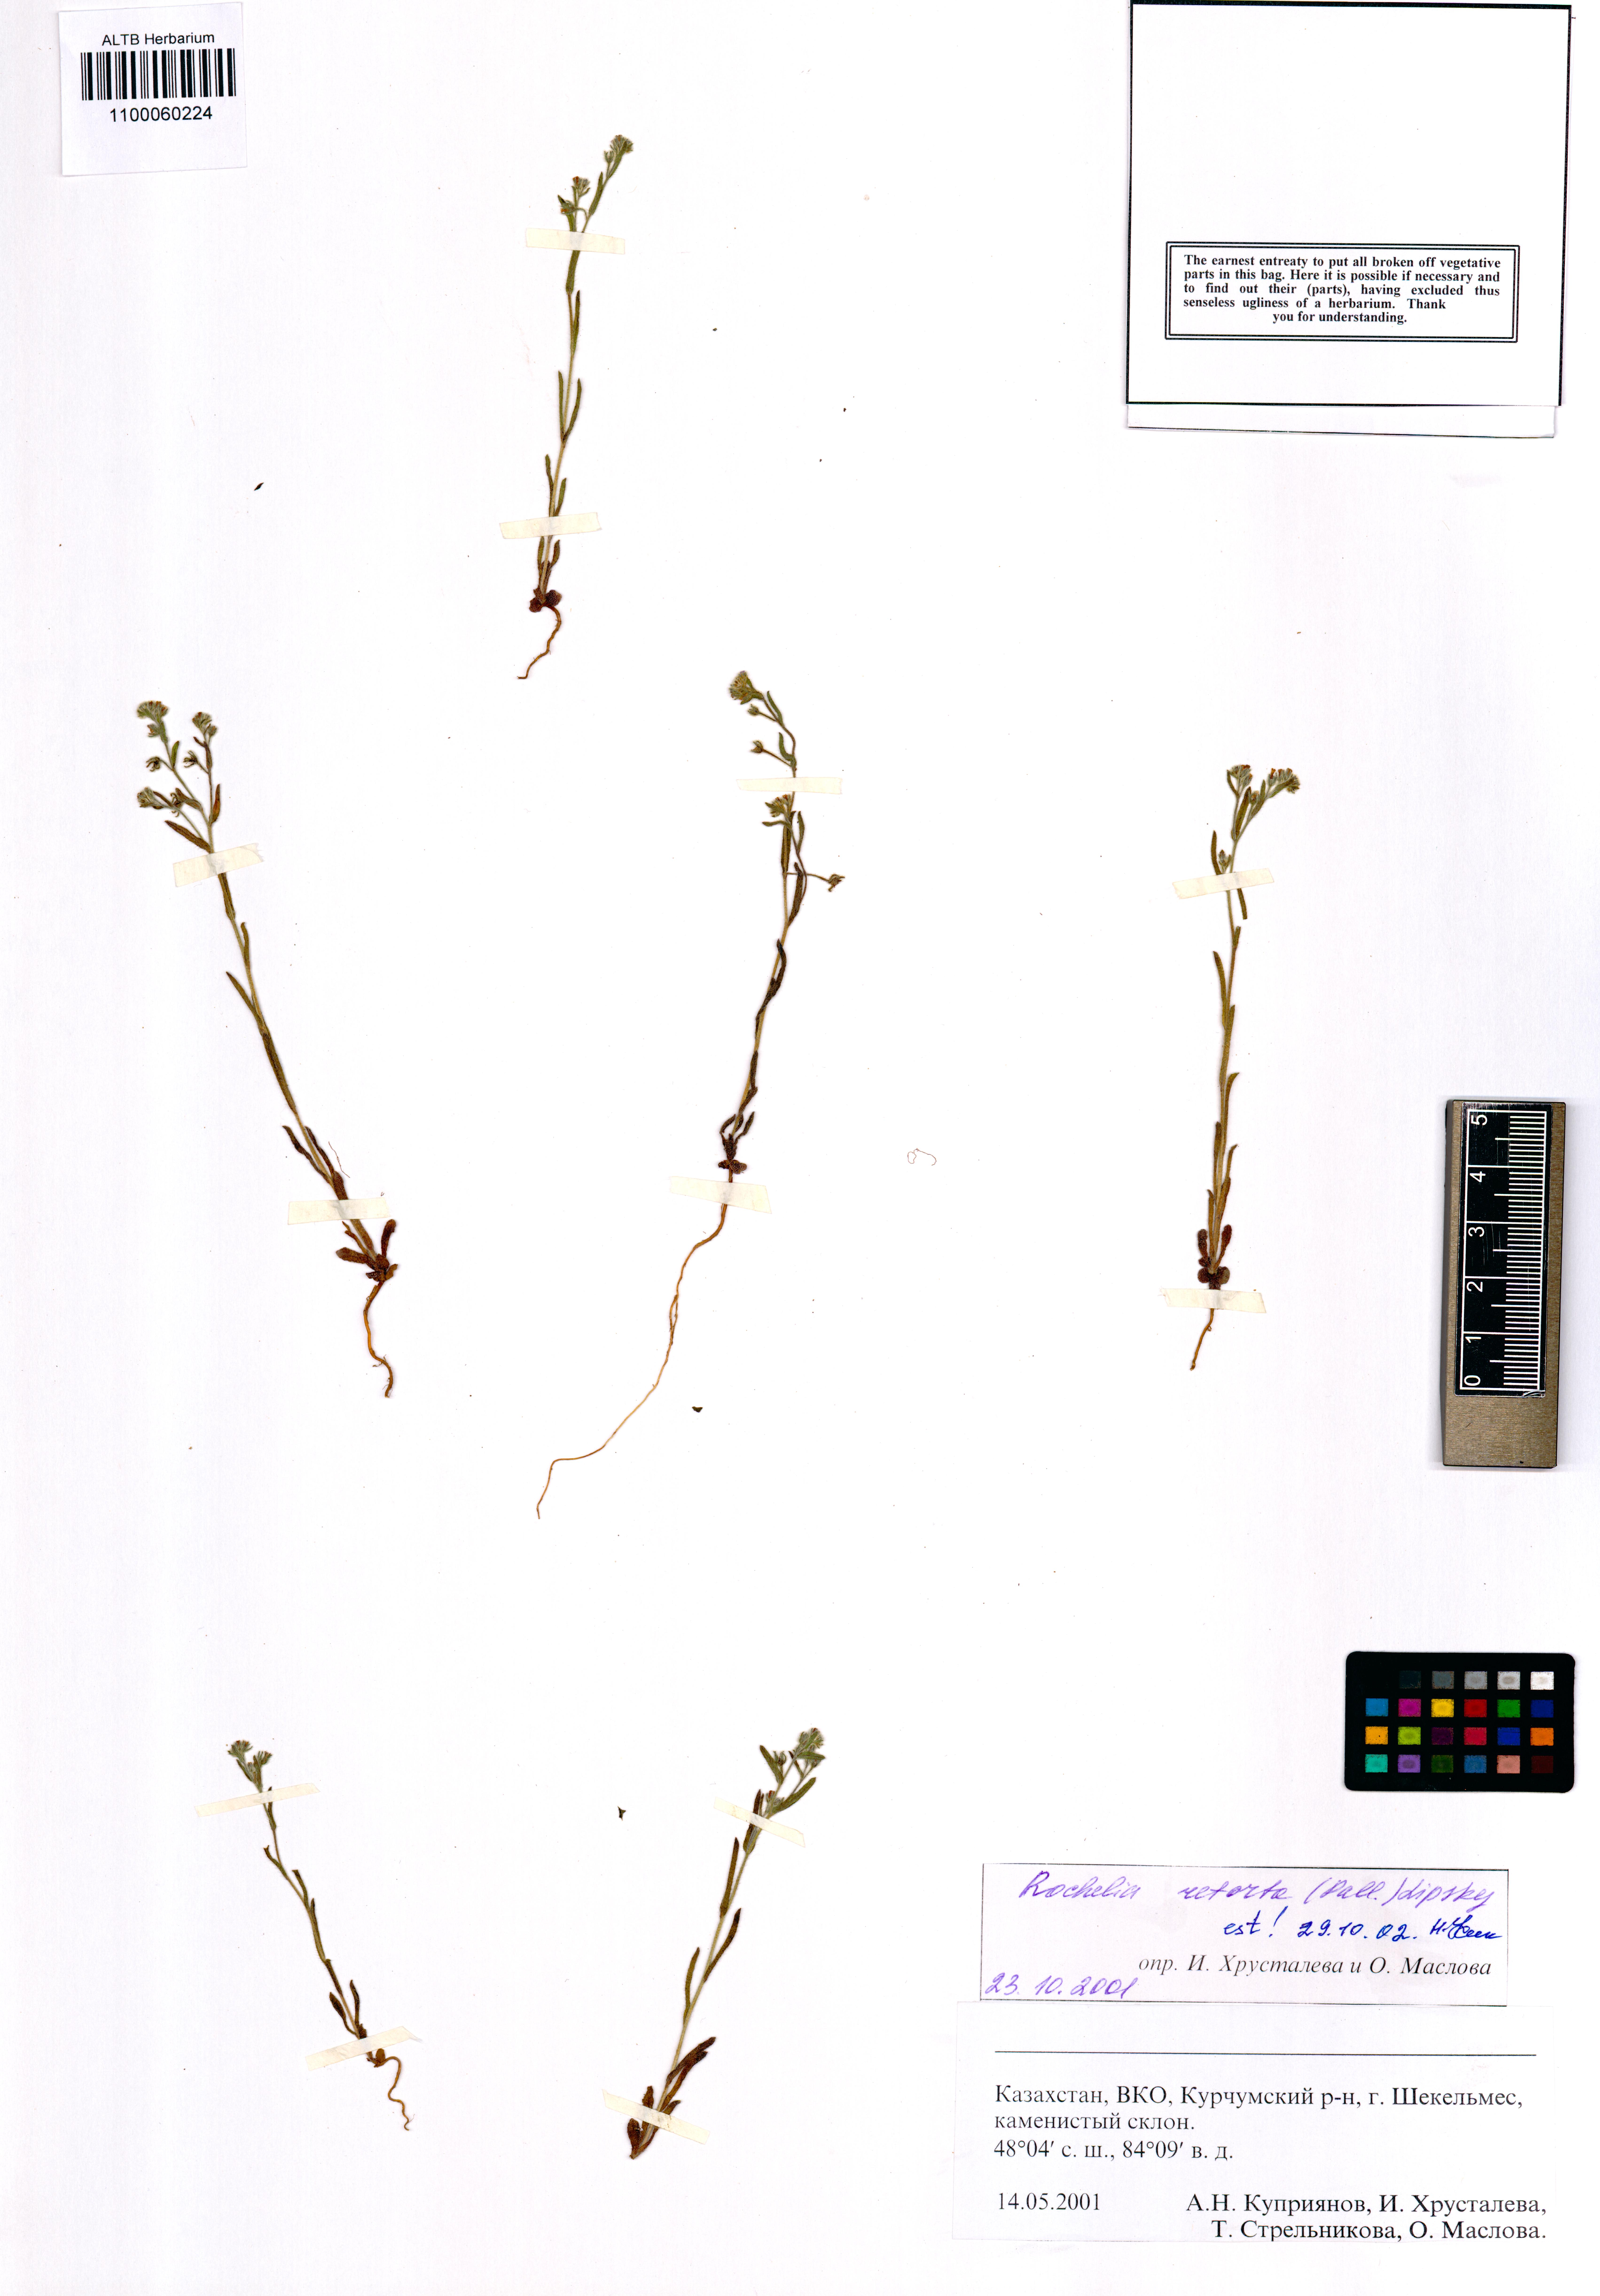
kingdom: Plantae
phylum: Tracheophyta
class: Magnoliopsida
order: Boraginales
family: Boraginaceae
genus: Rochelia
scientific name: Rochelia retorta
